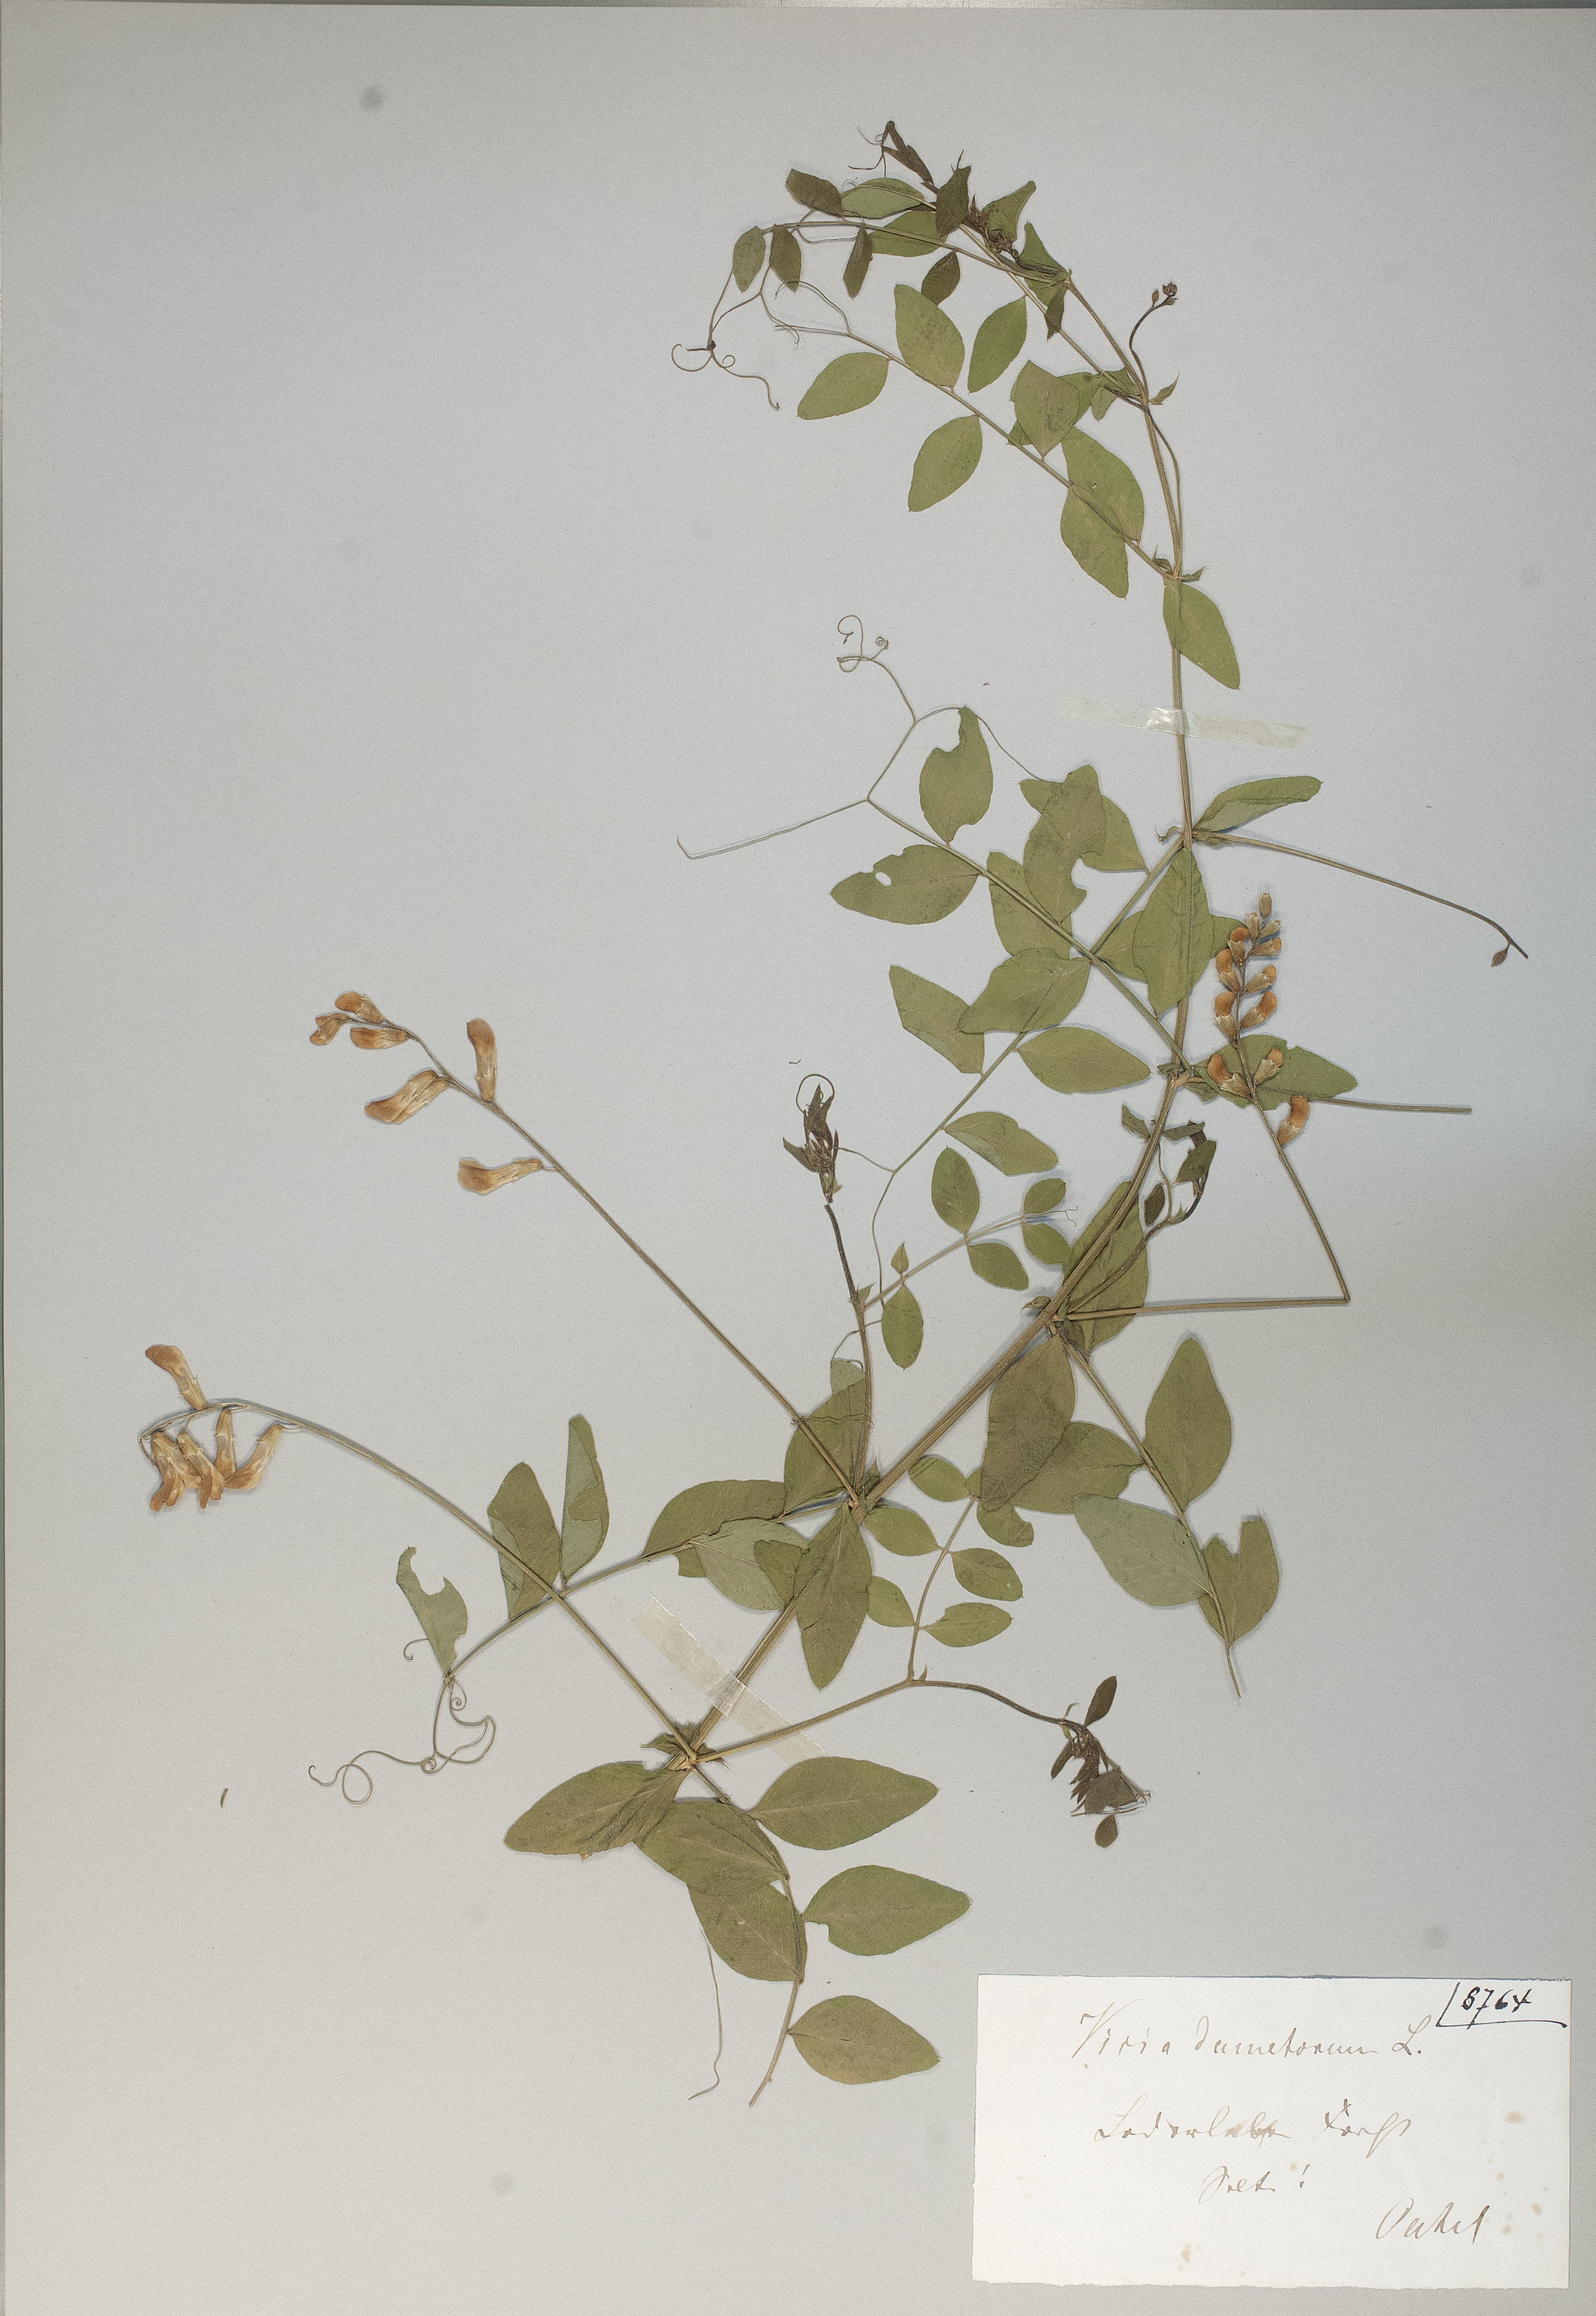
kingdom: Plantae
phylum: Tracheophyta
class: Magnoliopsida
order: Fabales
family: Fabaceae
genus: Vicia
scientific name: Vicia dumetorum
